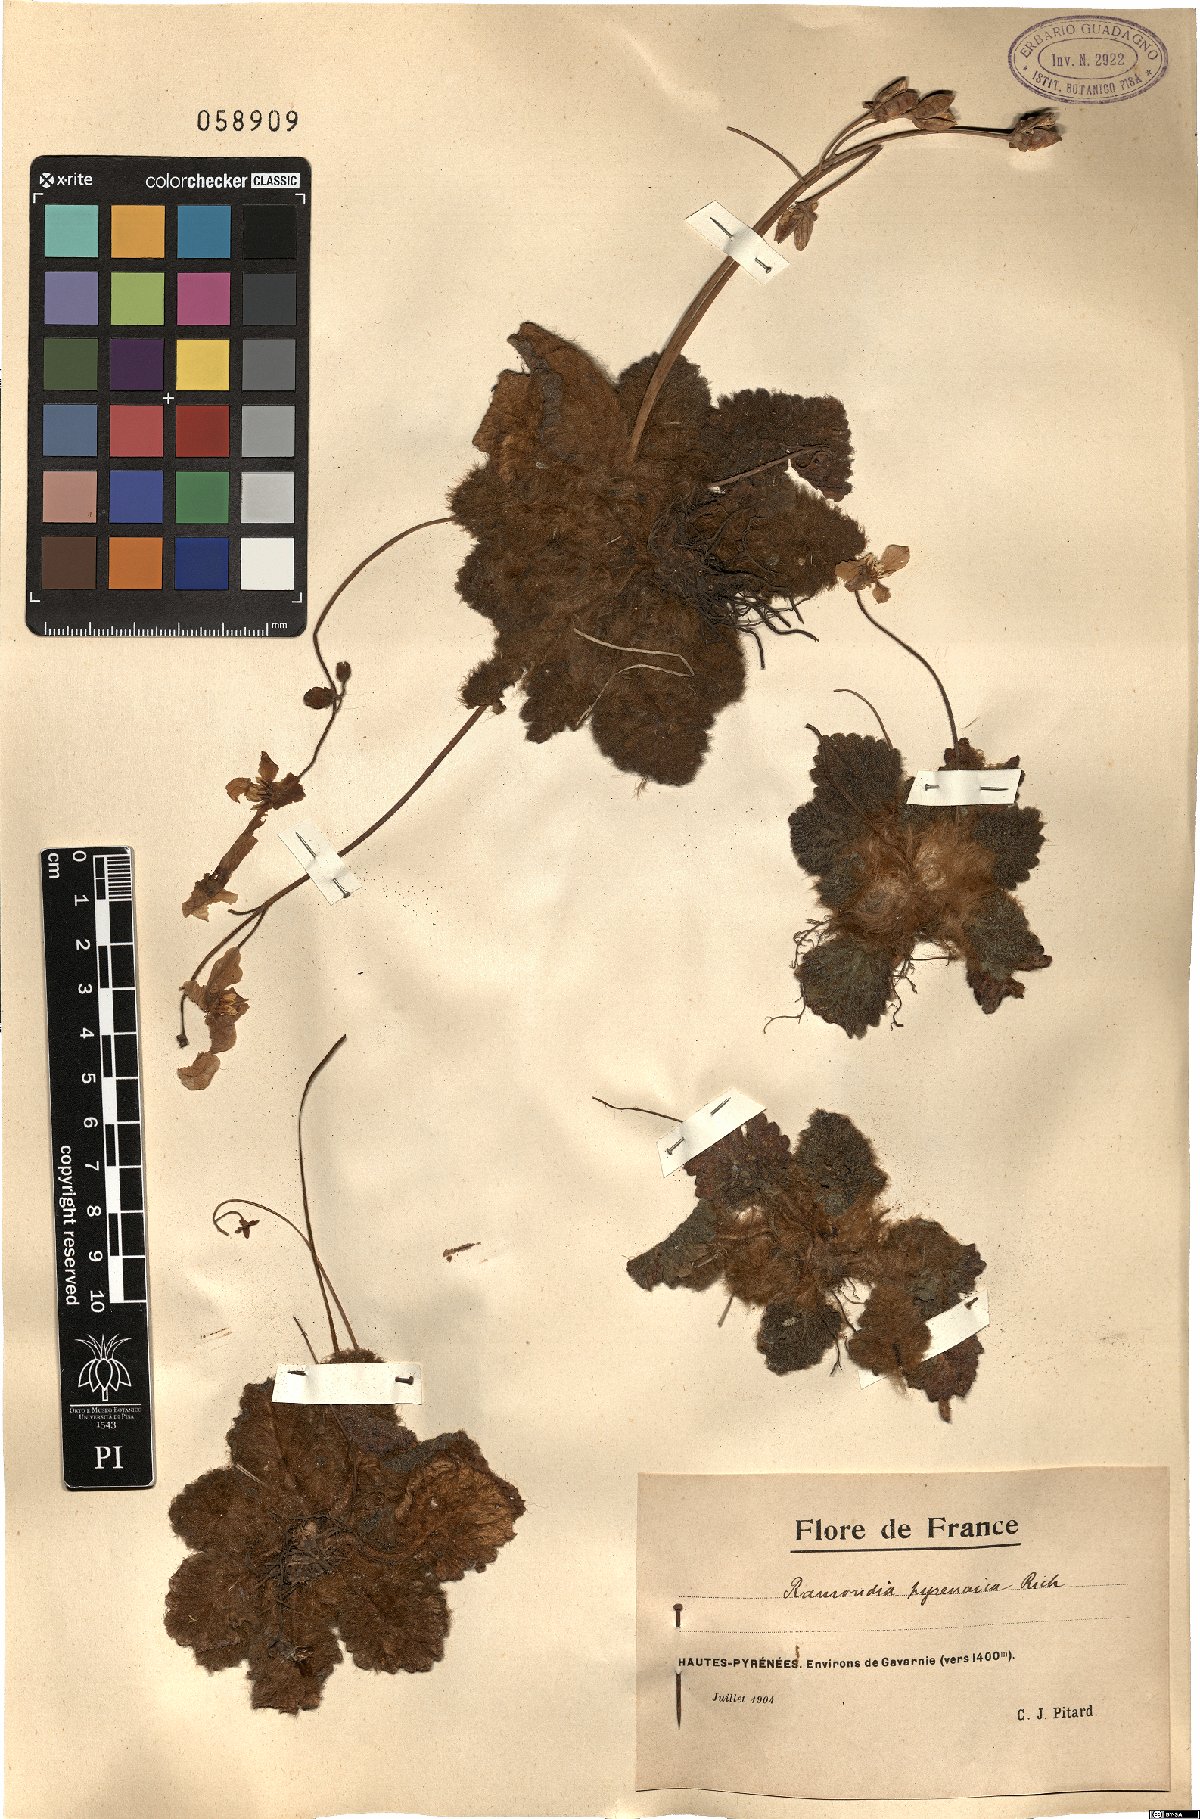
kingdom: Plantae
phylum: Tracheophyta
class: Magnoliopsida
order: Lamiales
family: Gesneriaceae
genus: Ramonda
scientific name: Ramonda myconi
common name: Pyrenean-violet
